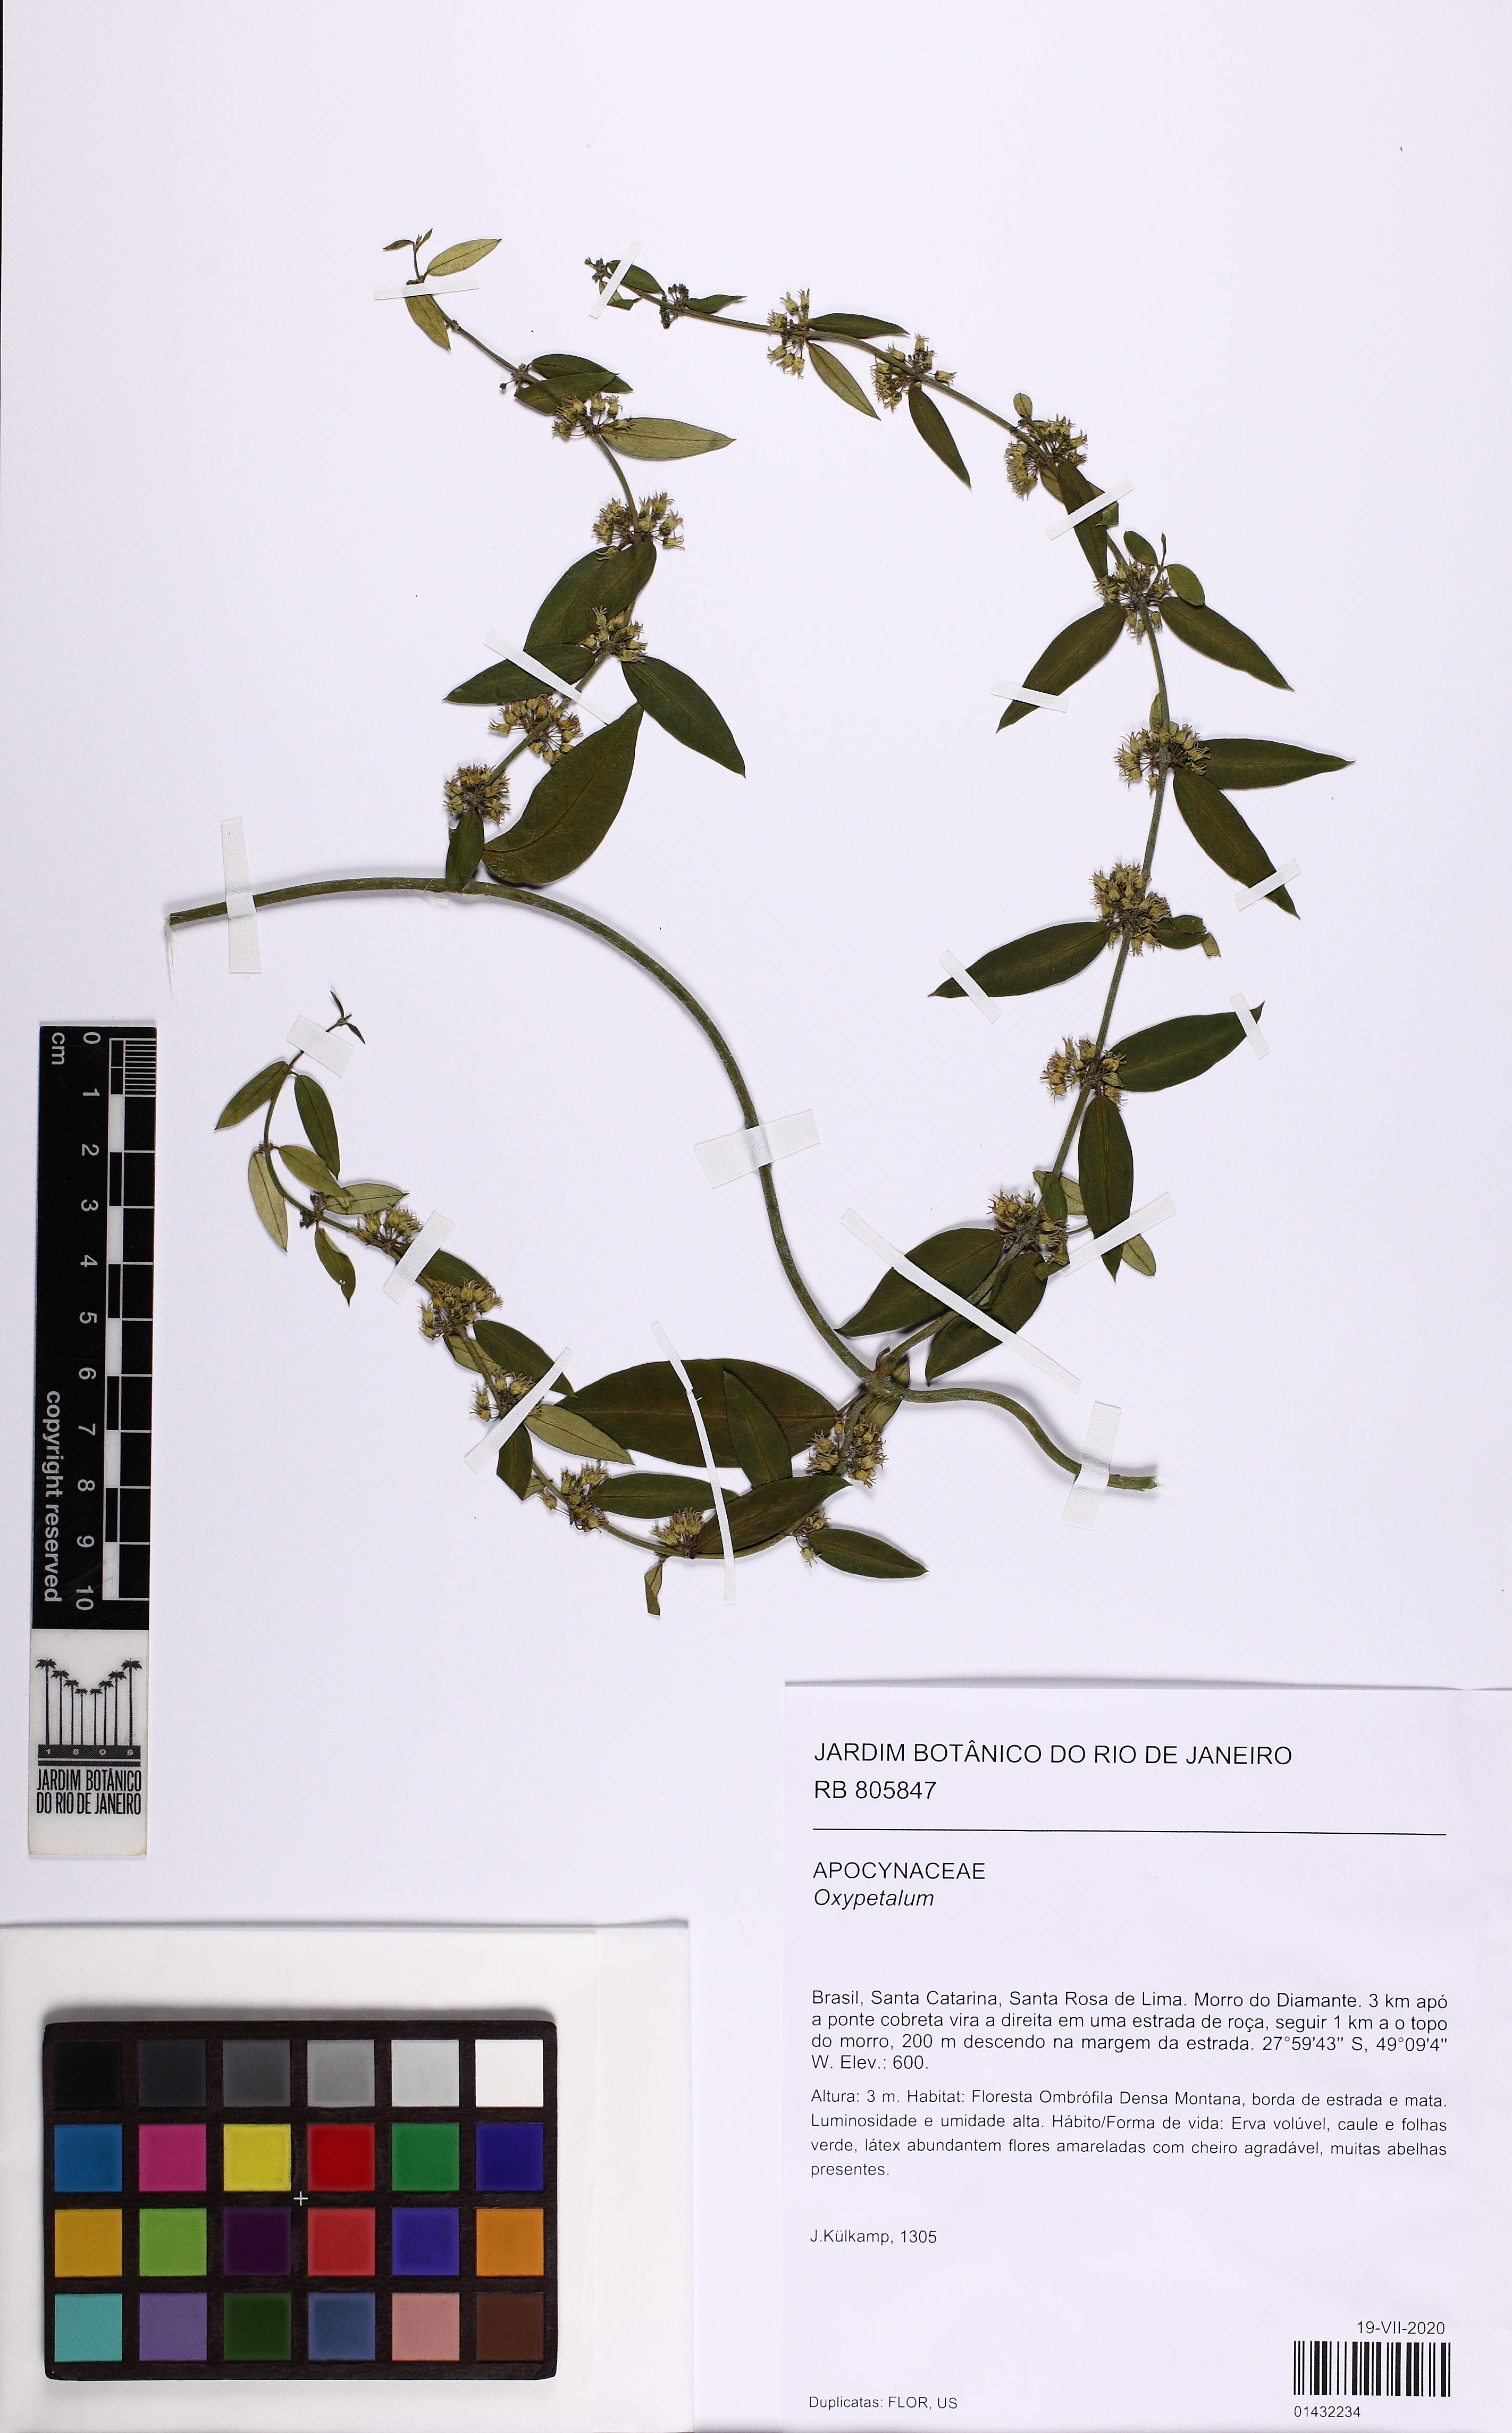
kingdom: Plantae
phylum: Tracheophyta
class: Magnoliopsida
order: Gentianales
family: Apocynaceae
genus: Oxypetalum
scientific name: Oxypetalum
